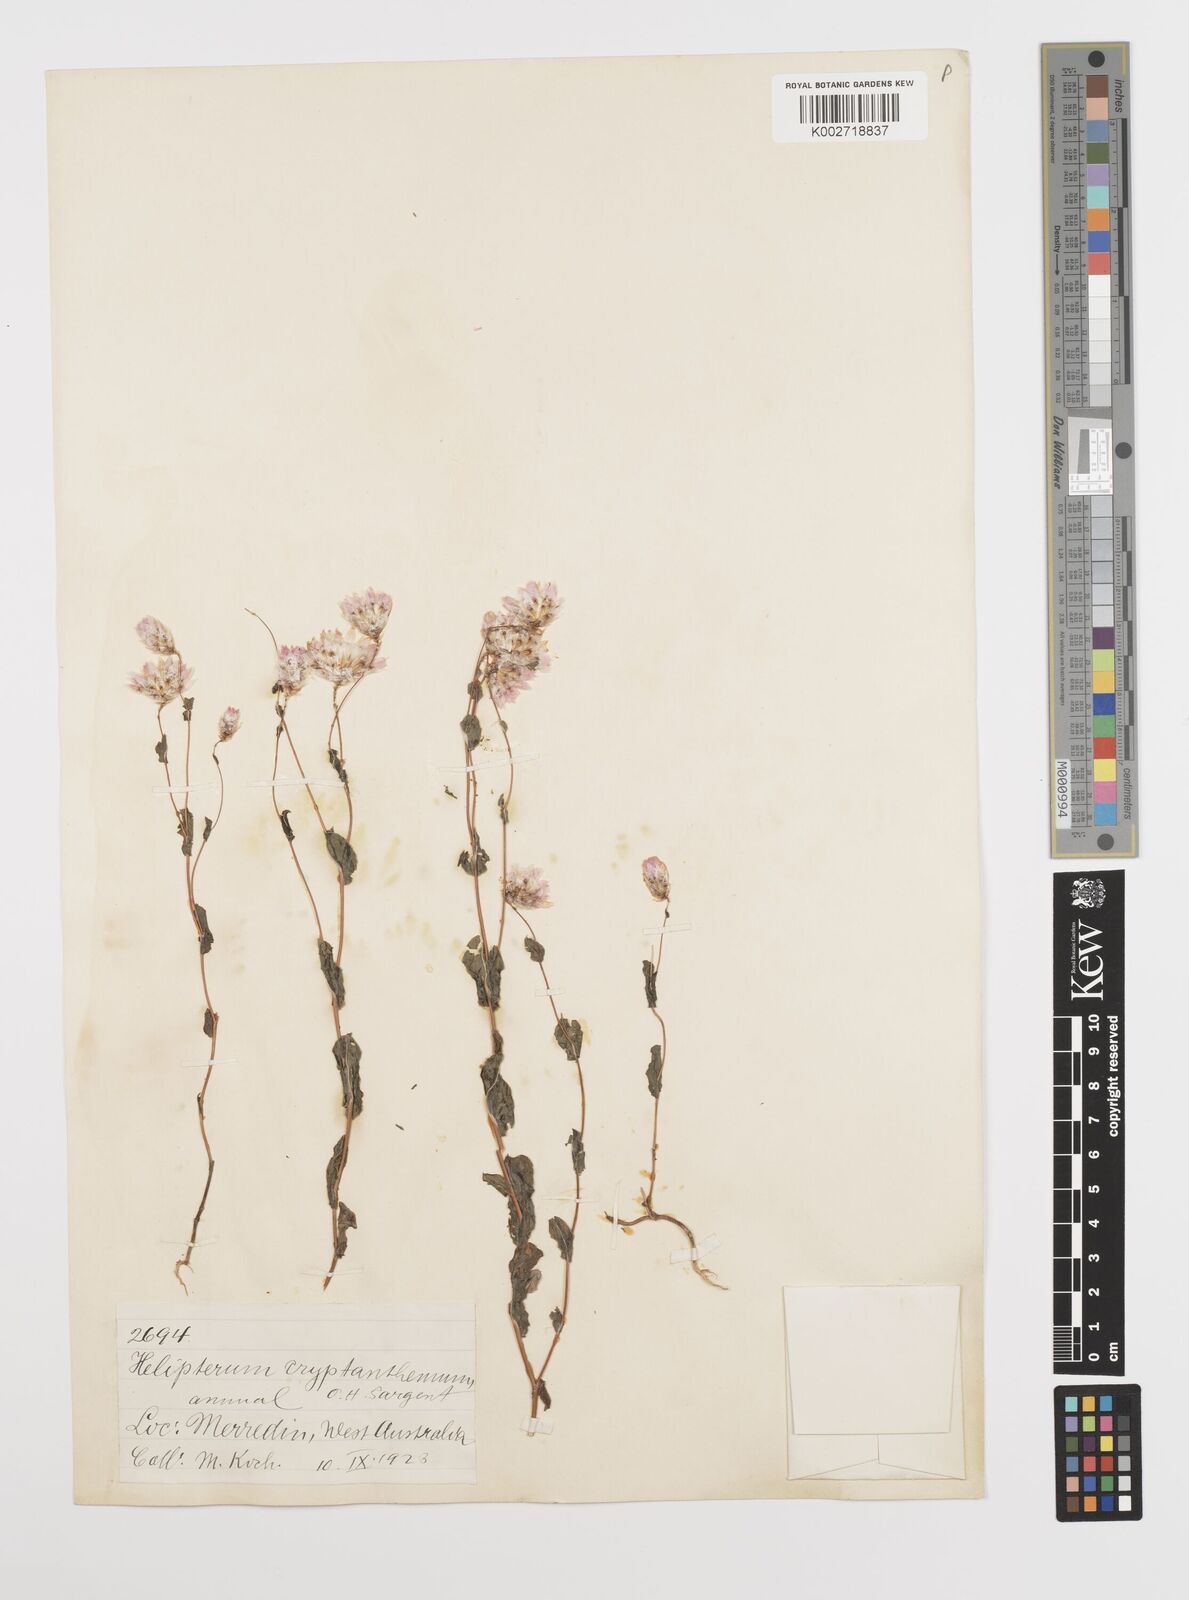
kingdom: Plantae
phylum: Tracheophyta
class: Magnoliopsida
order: Asterales
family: Asteraceae
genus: Rhodanthe
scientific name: Rhodanthe manglesii
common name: Pink sunray
